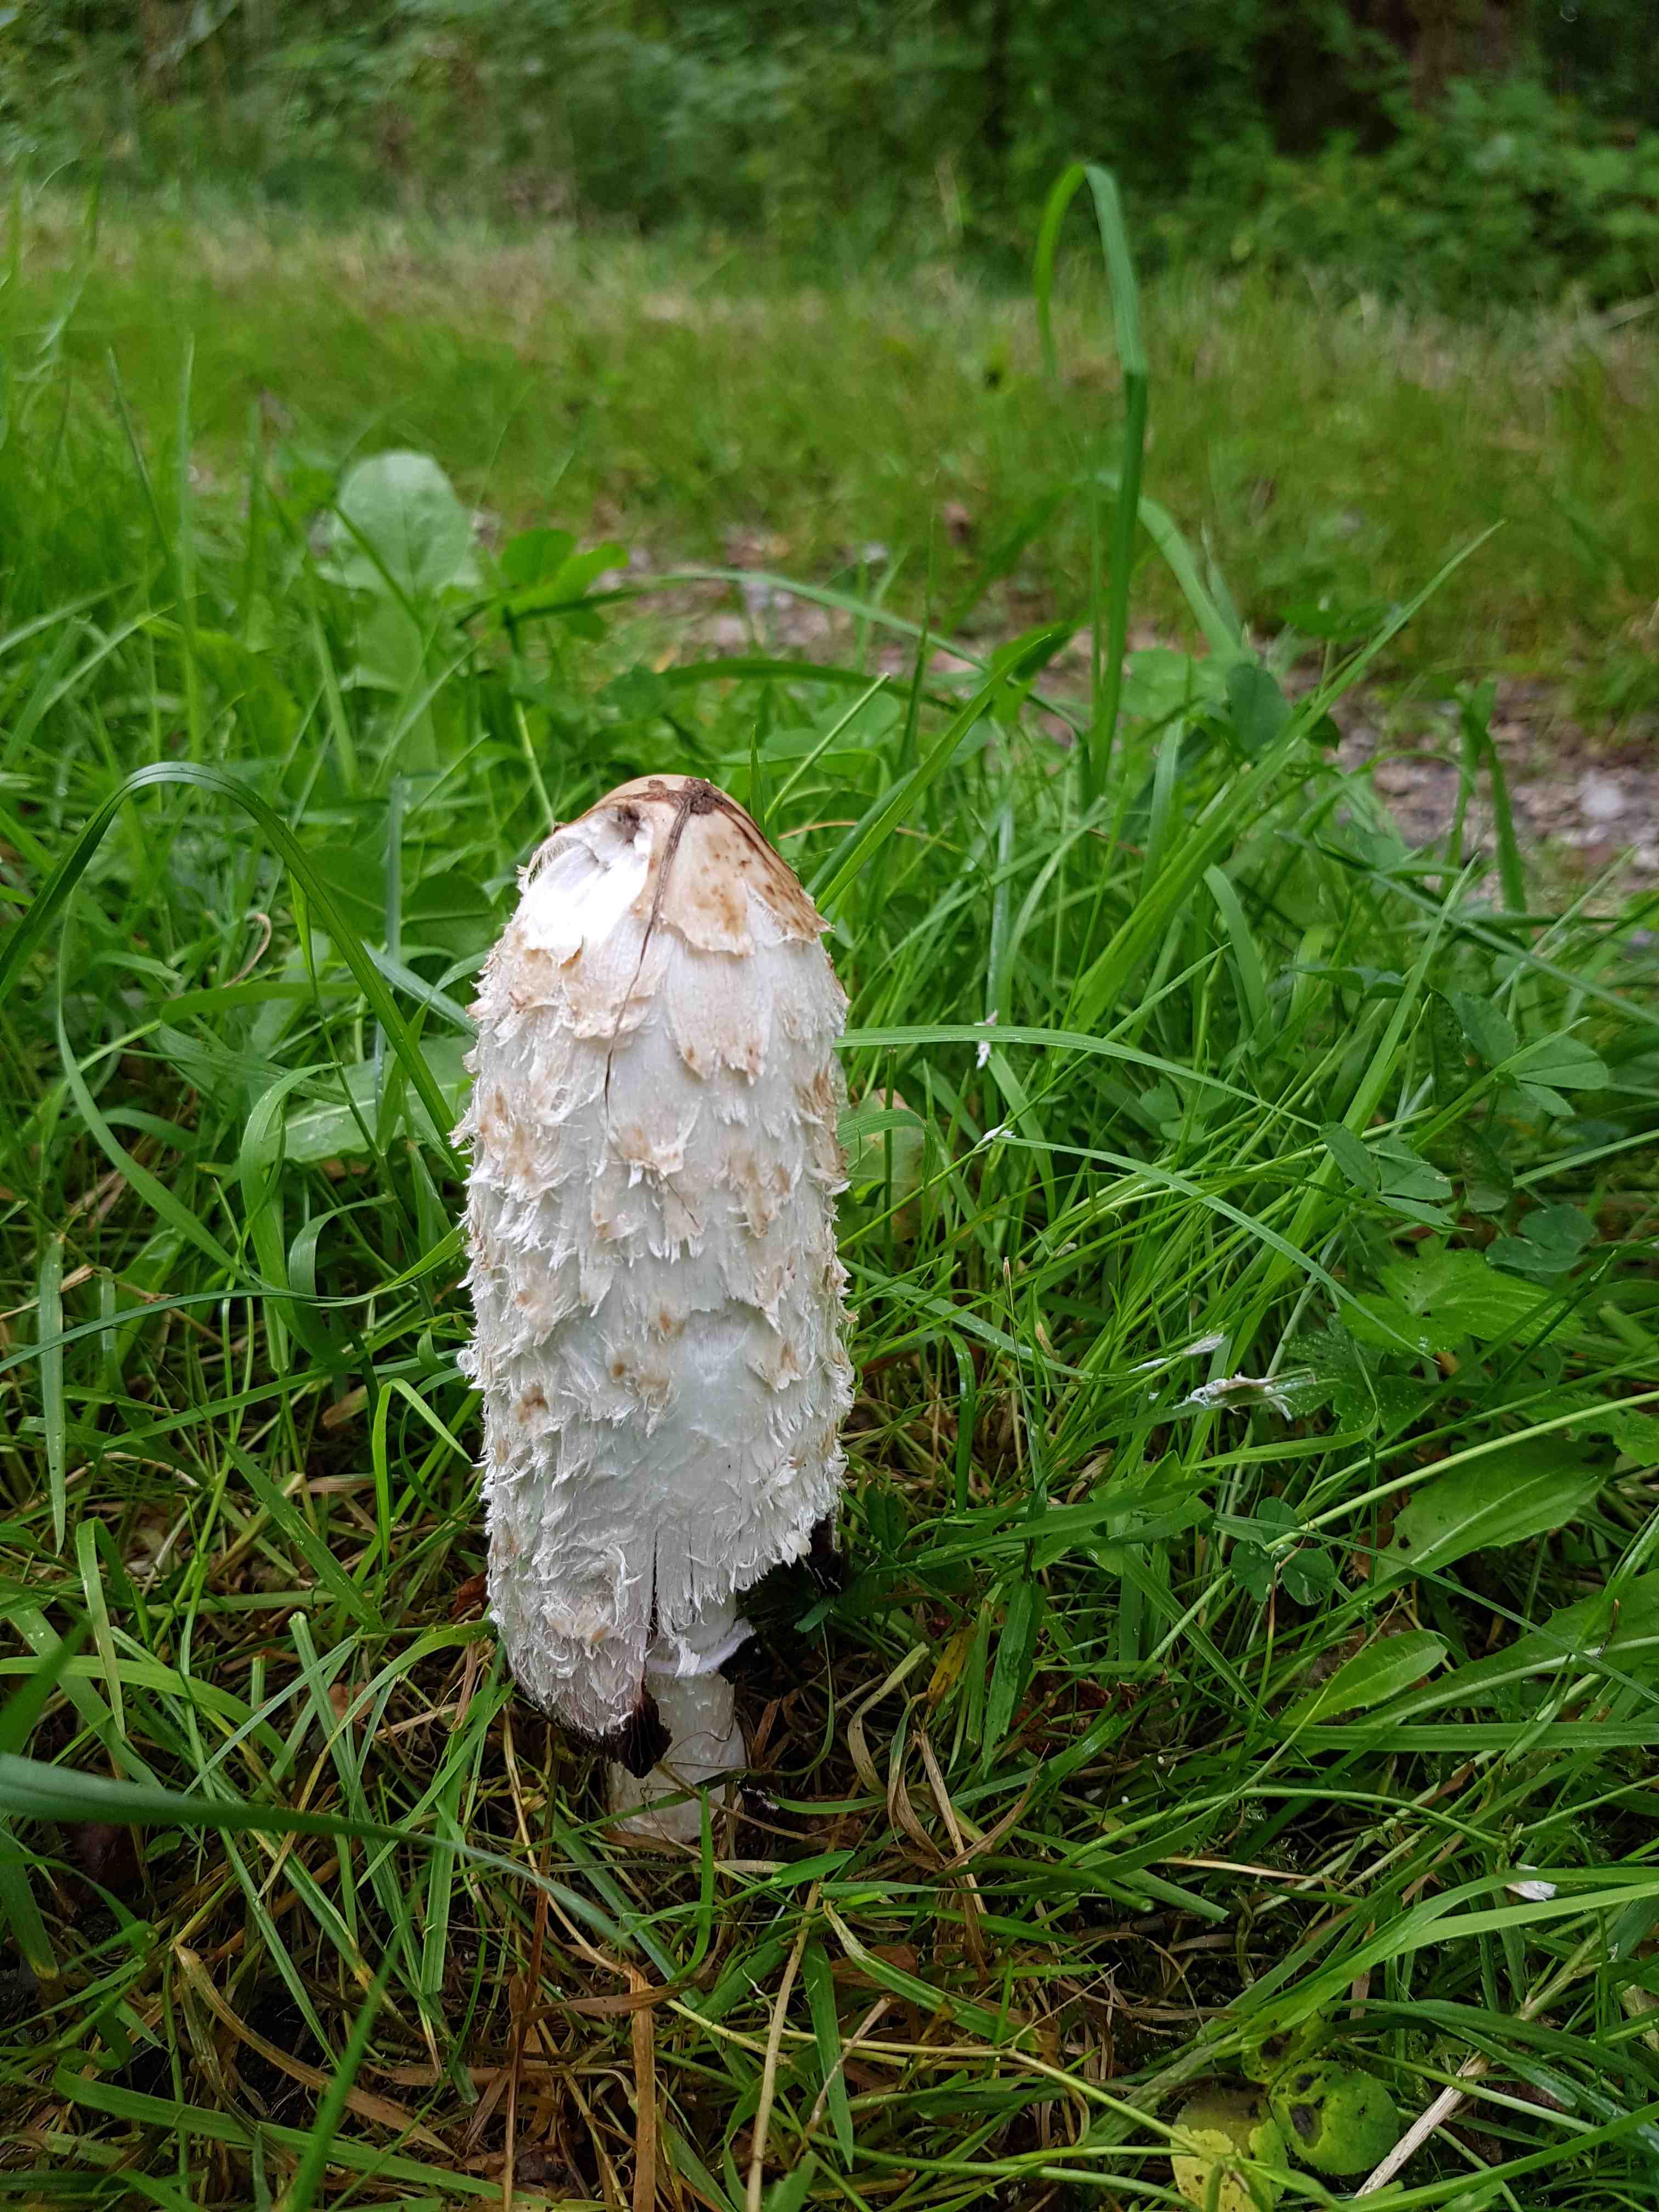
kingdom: Fungi
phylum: Basidiomycota
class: Agaricomycetes
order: Agaricales
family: Agaricaceae
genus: Coprinus
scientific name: Coprinus comatus
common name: stor parykhat
